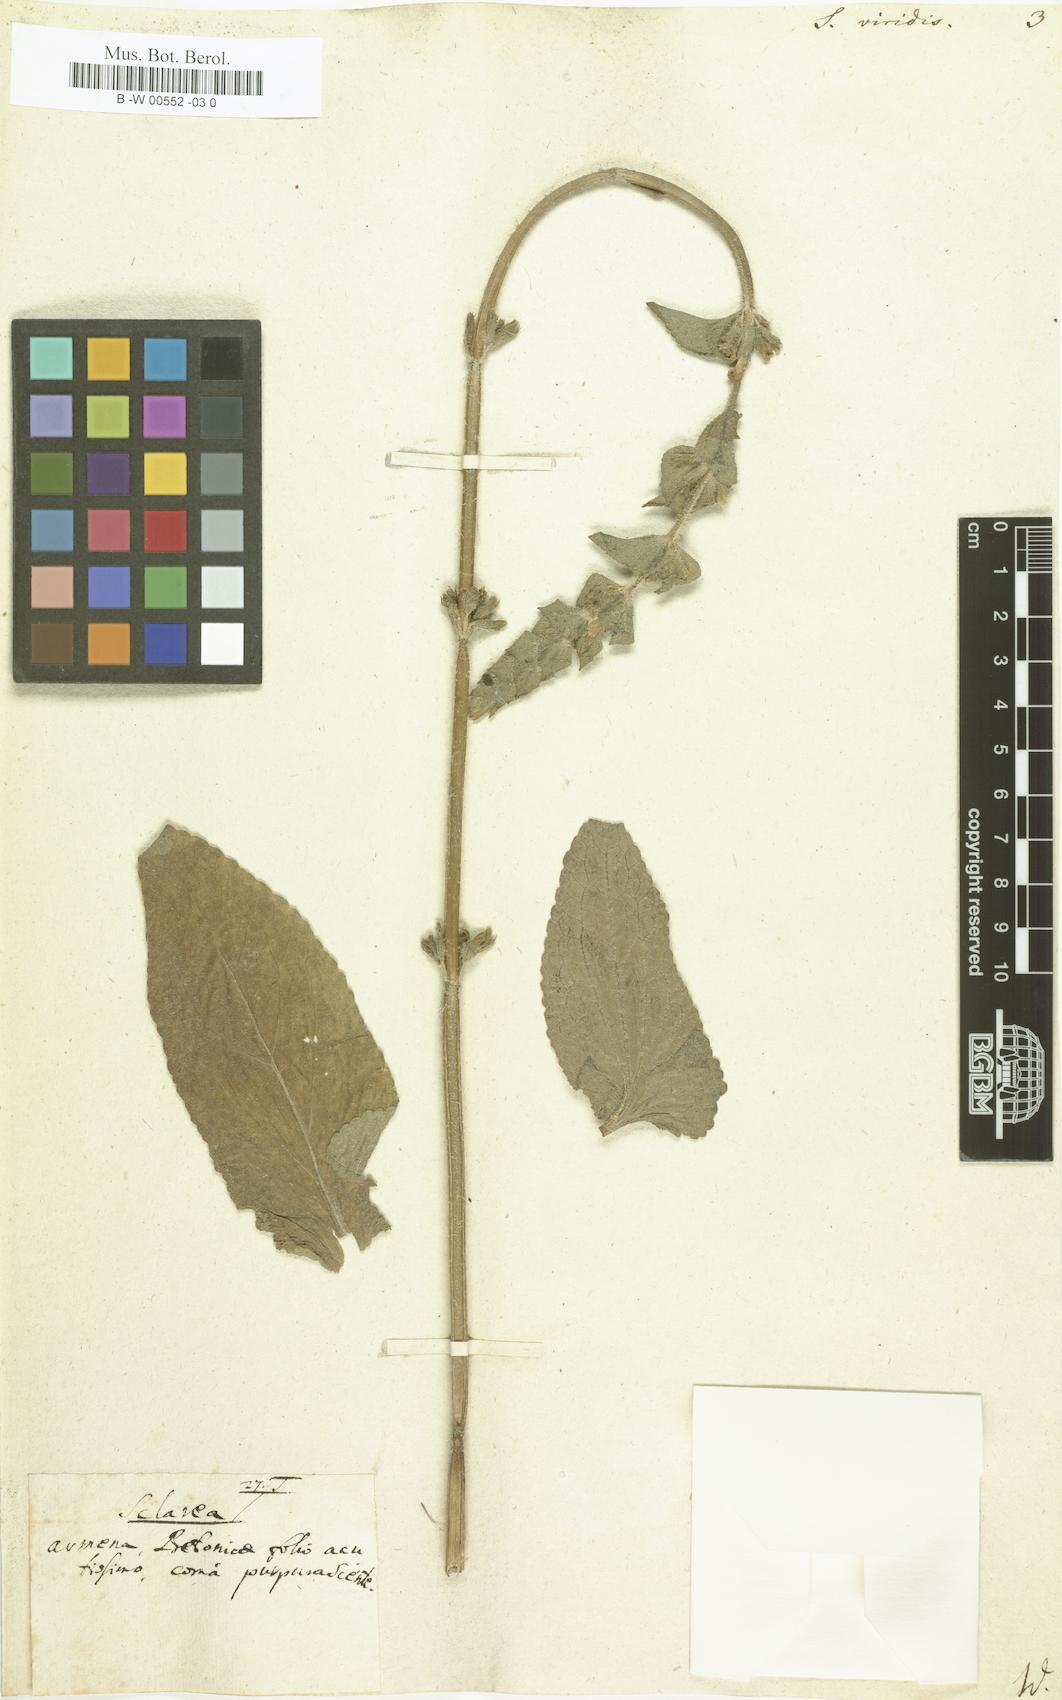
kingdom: Plantae
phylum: Tracheophyta
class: Magnoliopsida
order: Lamiales
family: Lamiaceae
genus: Salvia
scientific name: Salvia viridis
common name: Annual clary
